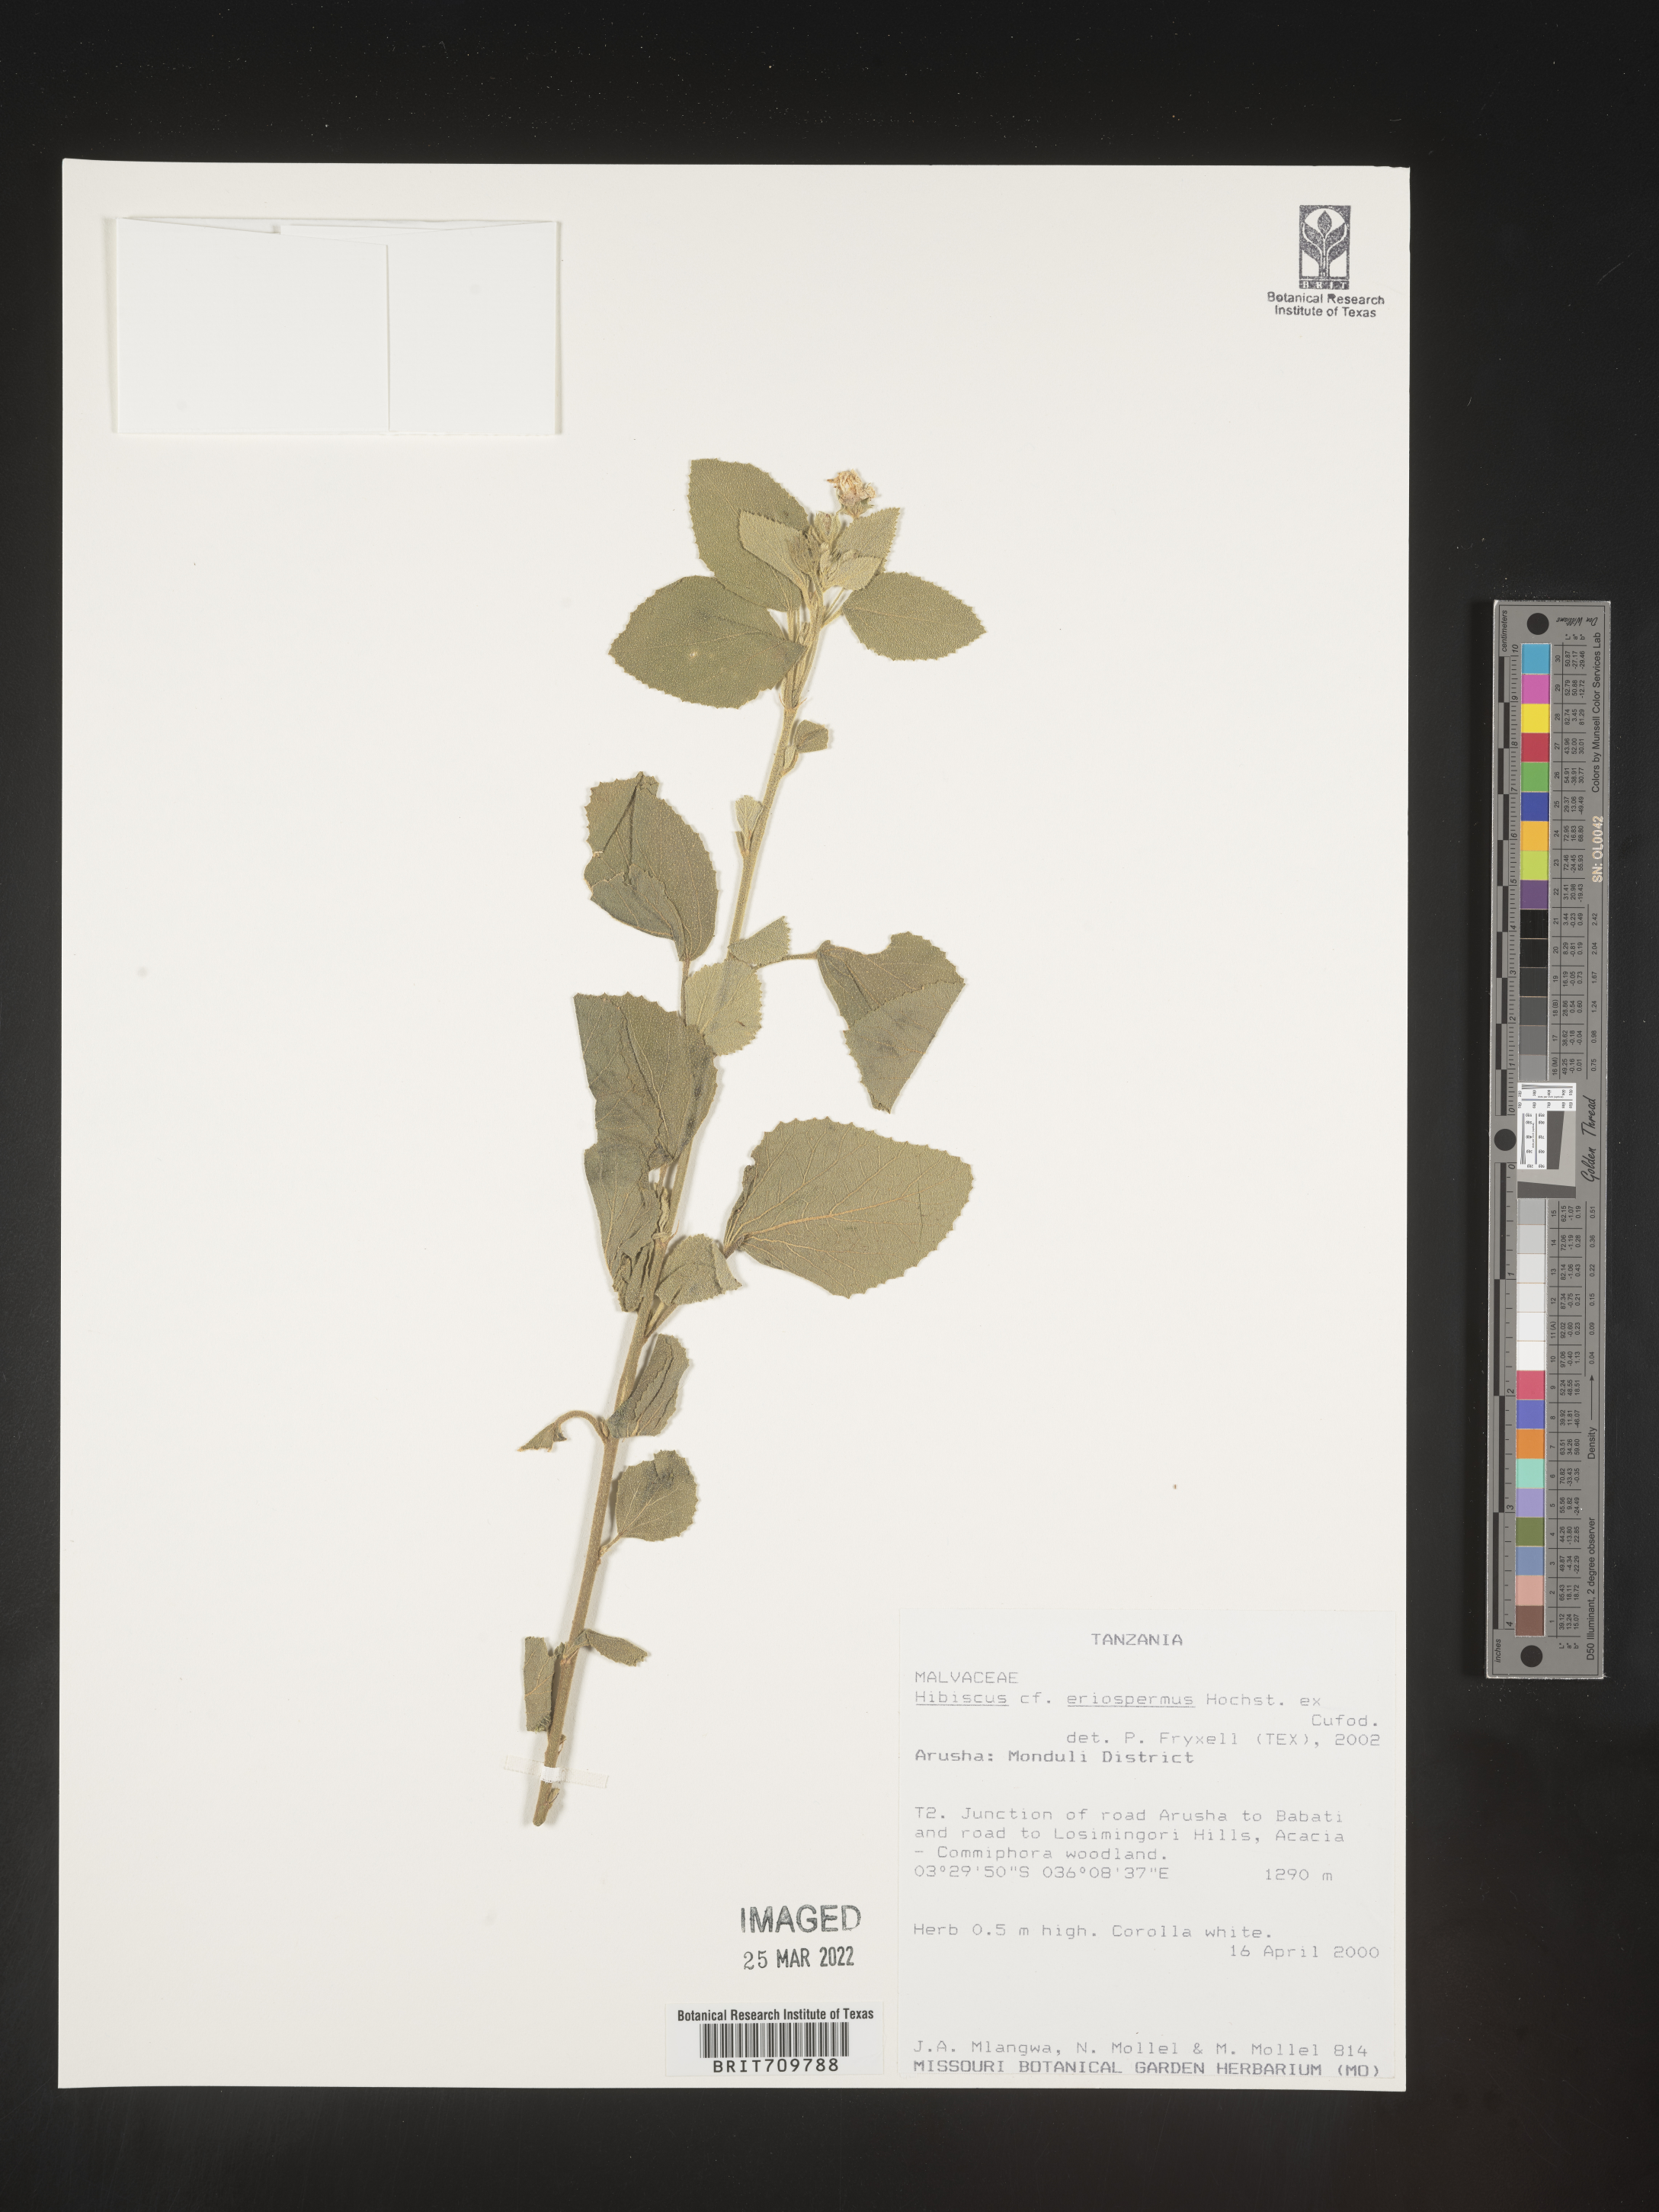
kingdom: Plantae
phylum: Tracheophyta
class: Magnoliopsida
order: Malvales
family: Malvaceae
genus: Hibiscus
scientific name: Hibiscus
